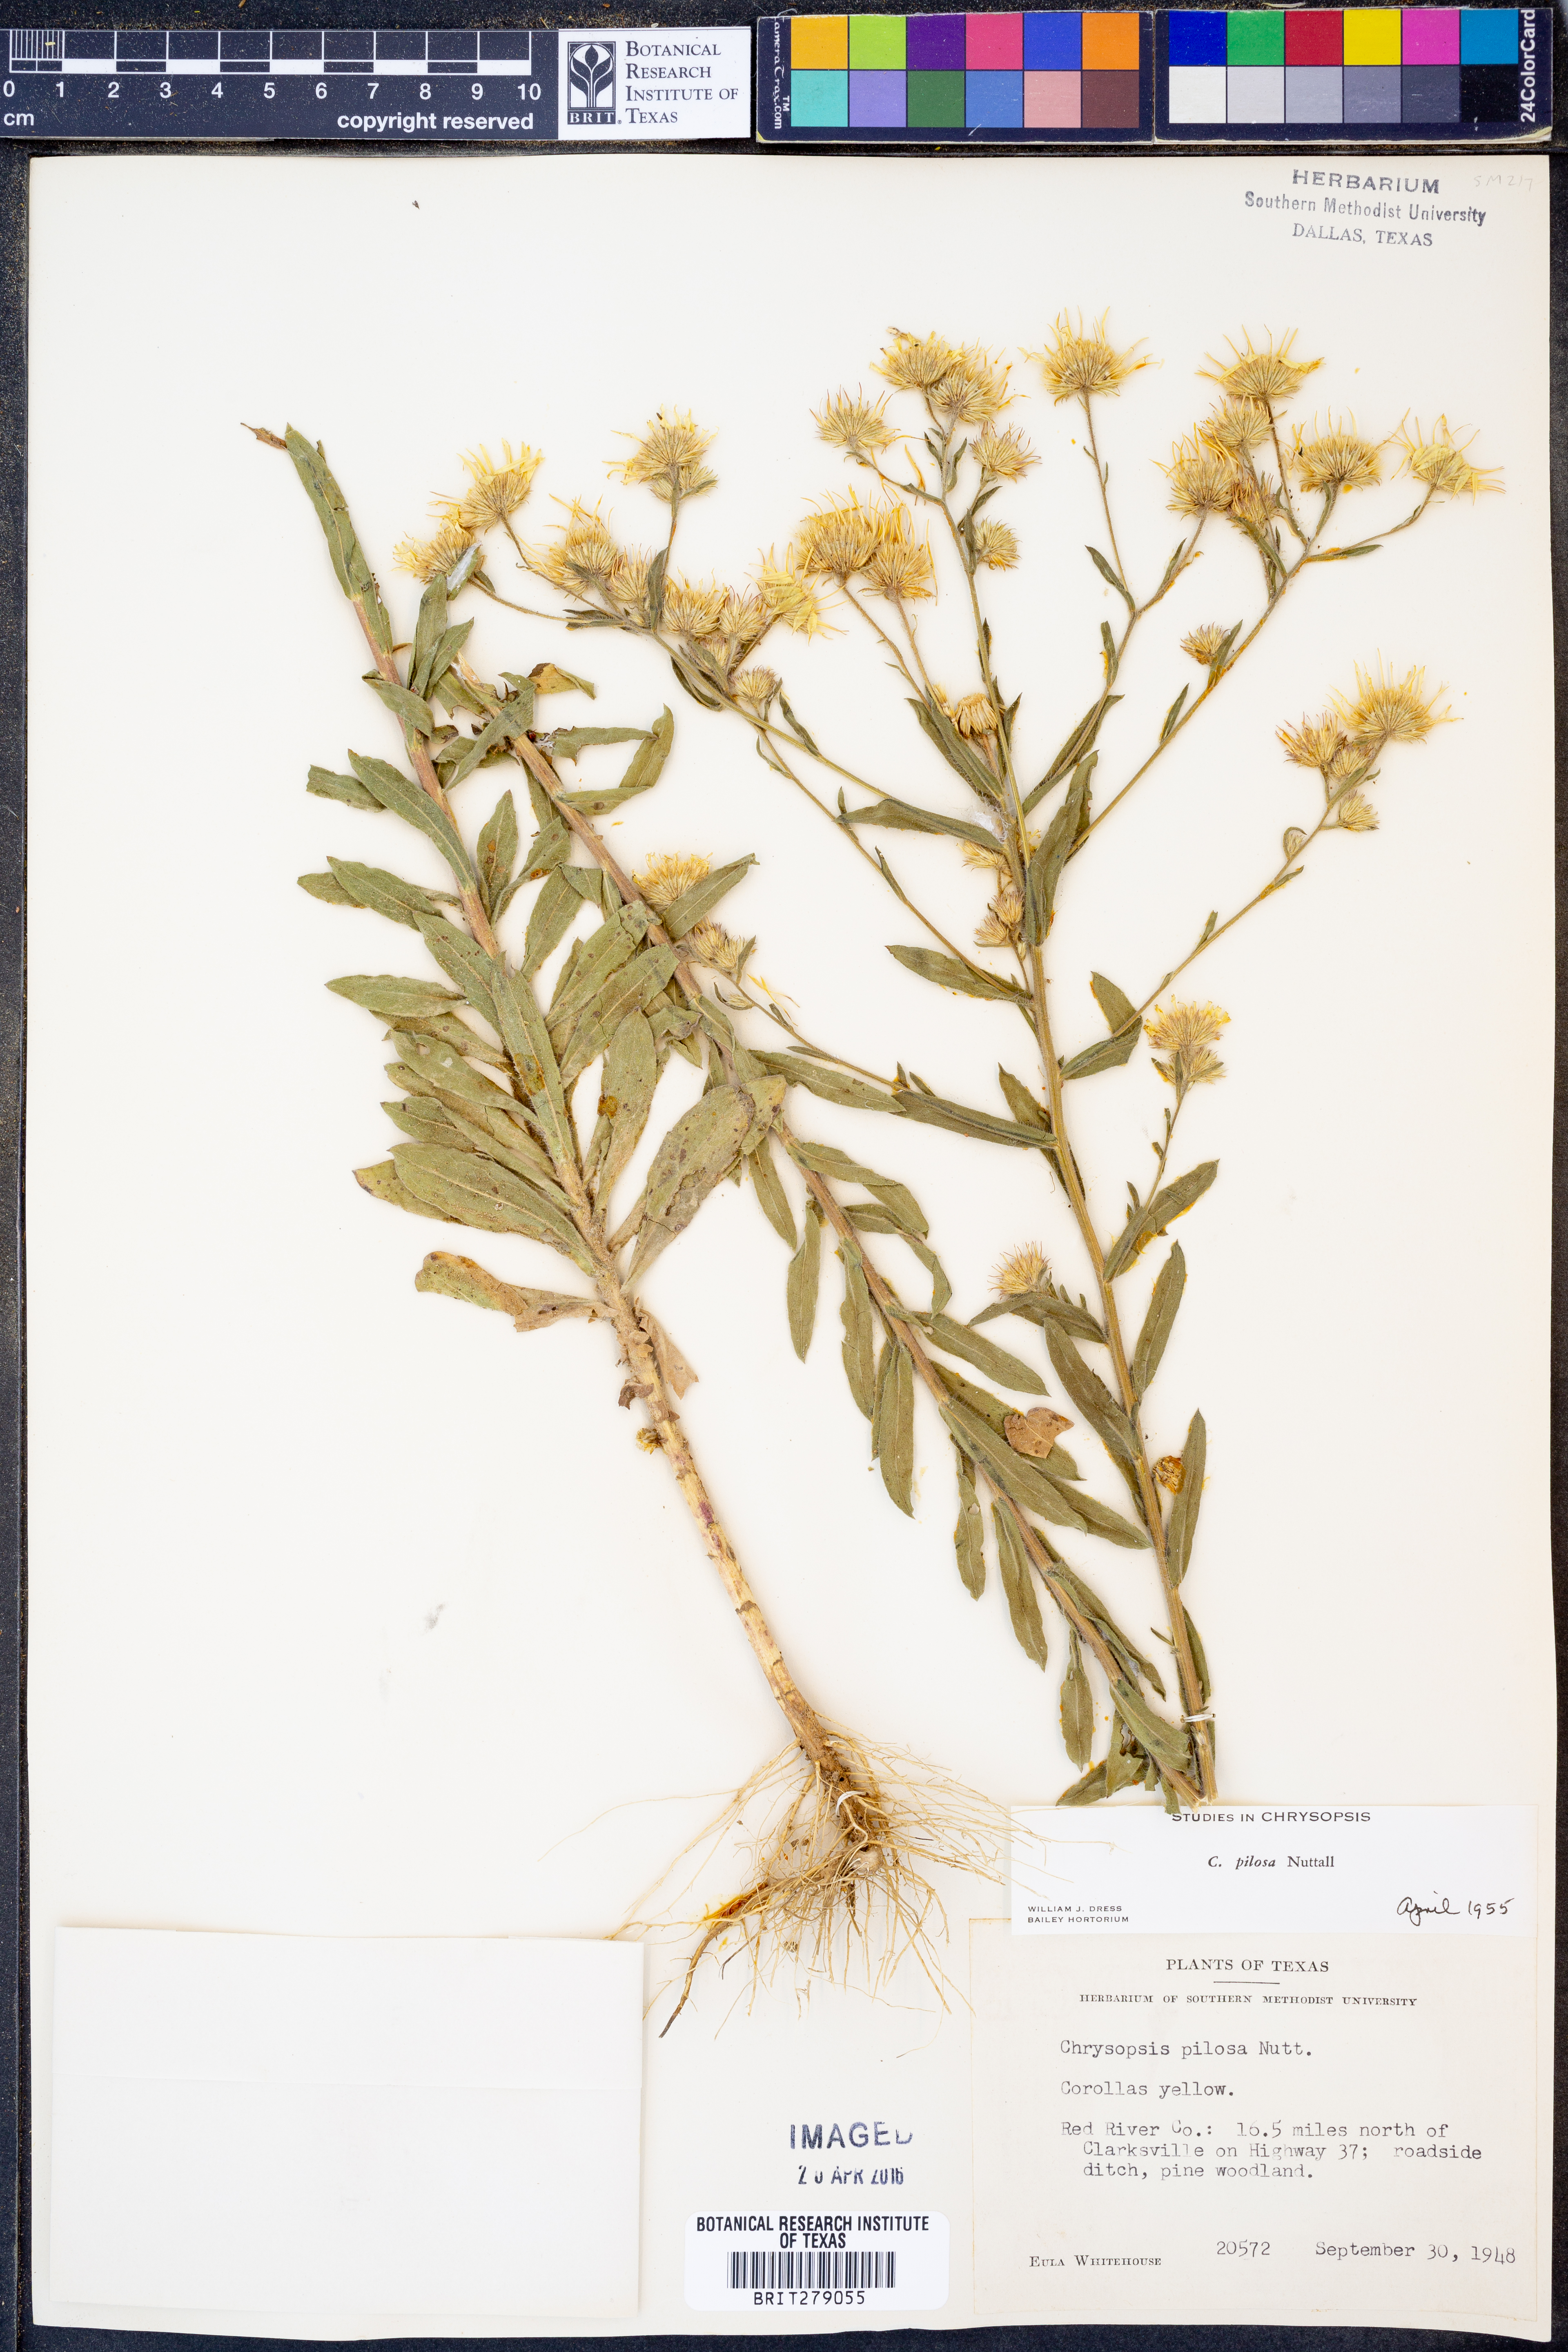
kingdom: Plantae
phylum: Tracheophyta
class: Magnoliopsida
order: Asterales
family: Asteraceae
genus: Bradburia
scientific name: Bradburia pilosa
